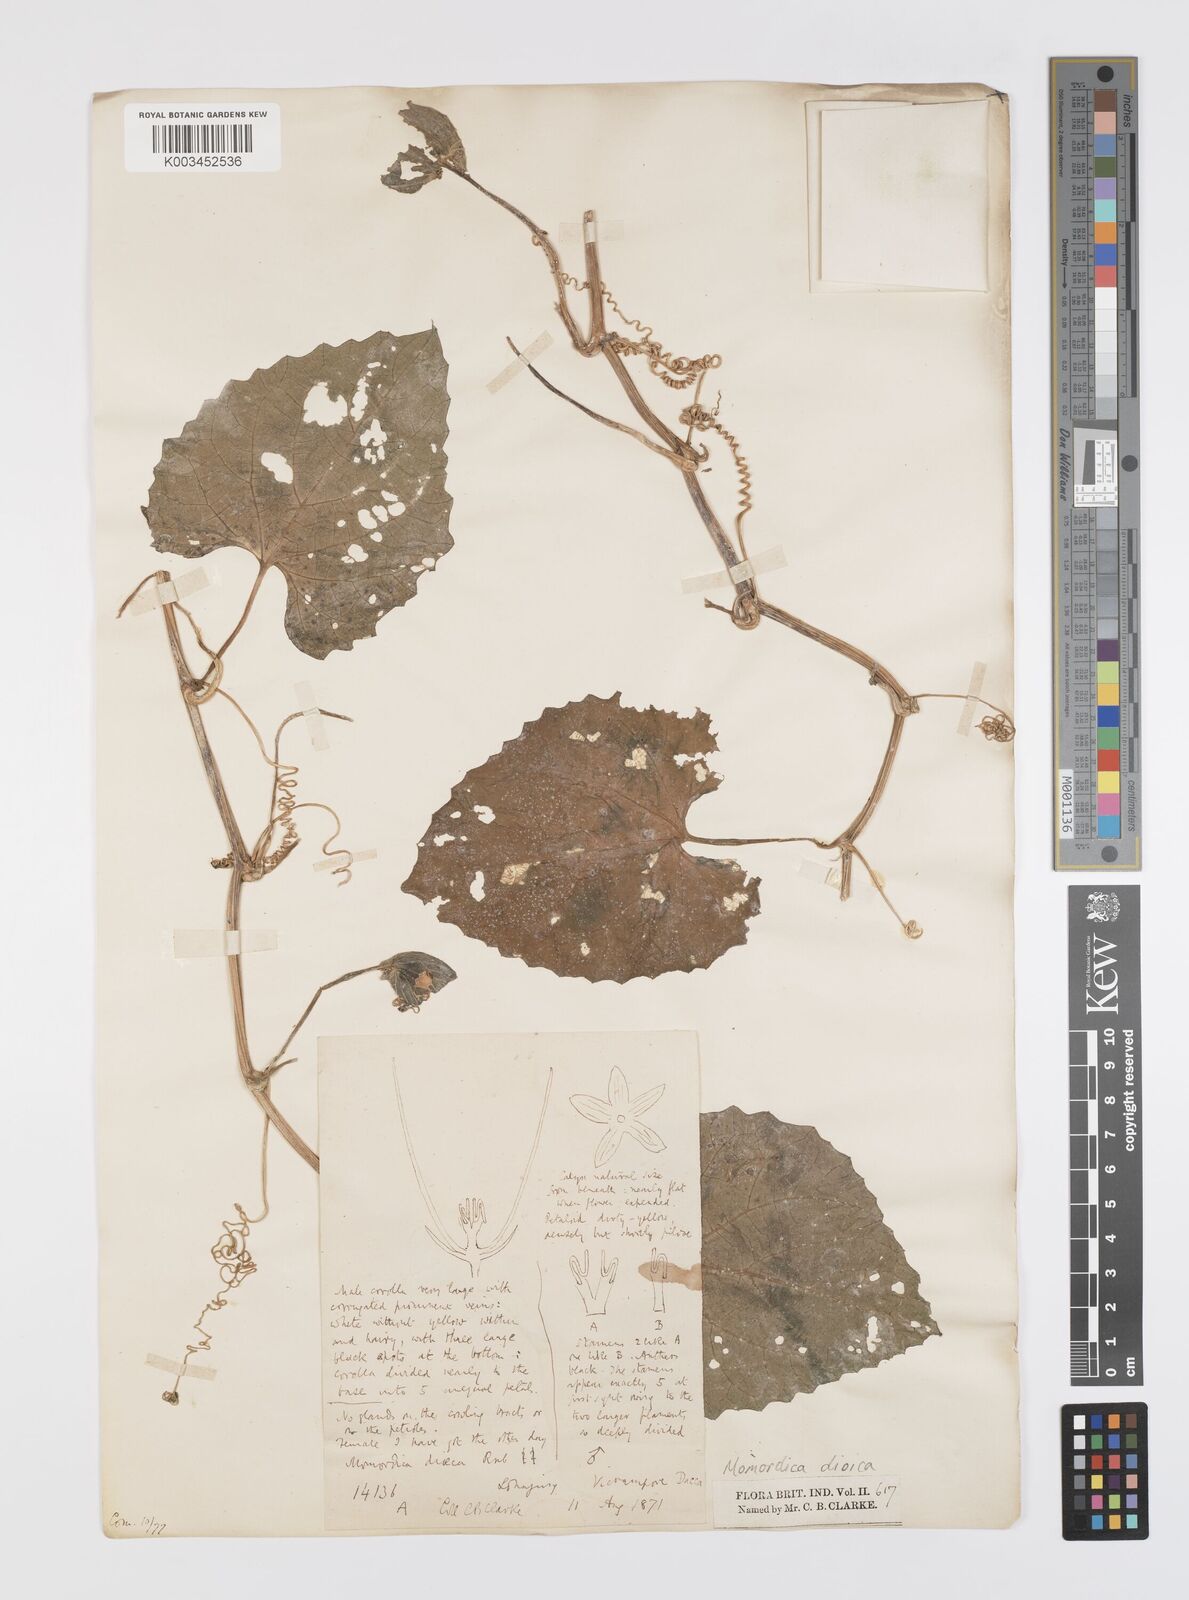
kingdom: Plantae
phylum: Tracheophyta
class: Magnoliopsida
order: Cucurbitales
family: Cucurbitaceae
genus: Momordica
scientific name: Momordica dioica
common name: Spine gourd
